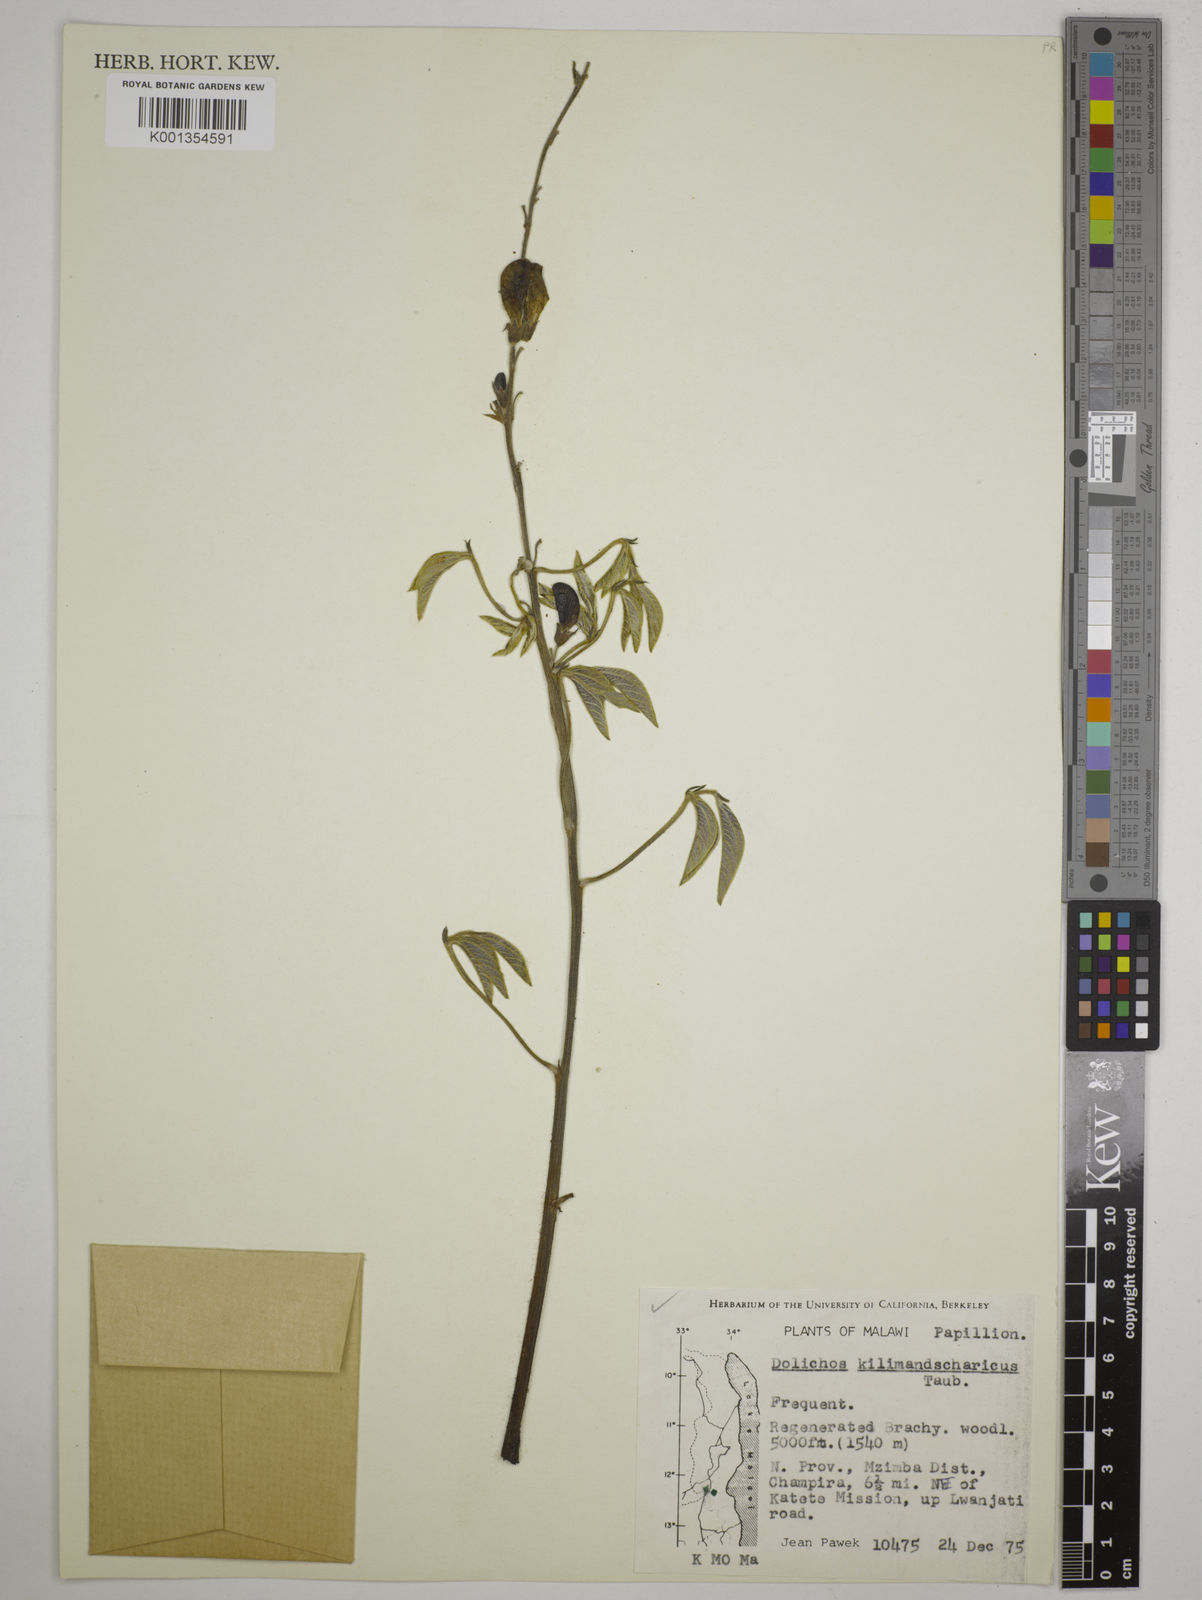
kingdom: Plantae
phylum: Tracheophyta
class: Magnoliopsida
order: Fabales
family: Fabaceae
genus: Dolichos
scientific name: Dolichos kilimandscharicus
